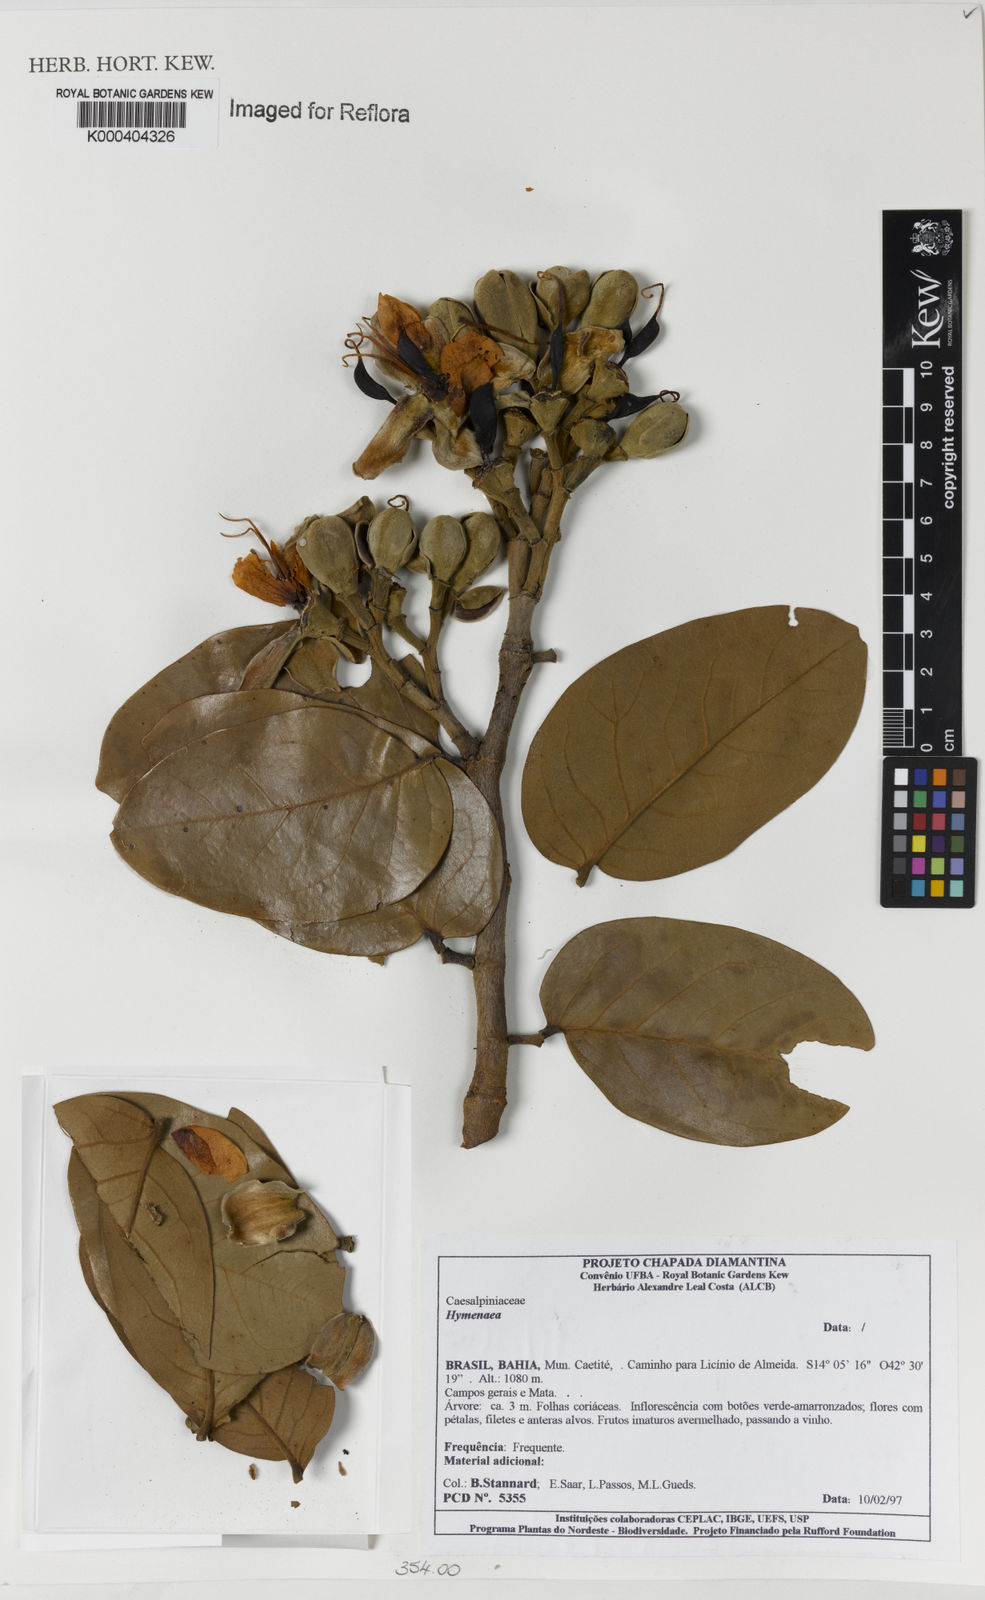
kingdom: Plantae
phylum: Tracheophyta
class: Magnoliopsida
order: Fabales
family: Fabaceae
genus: Hymenaea
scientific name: Hymenaea
